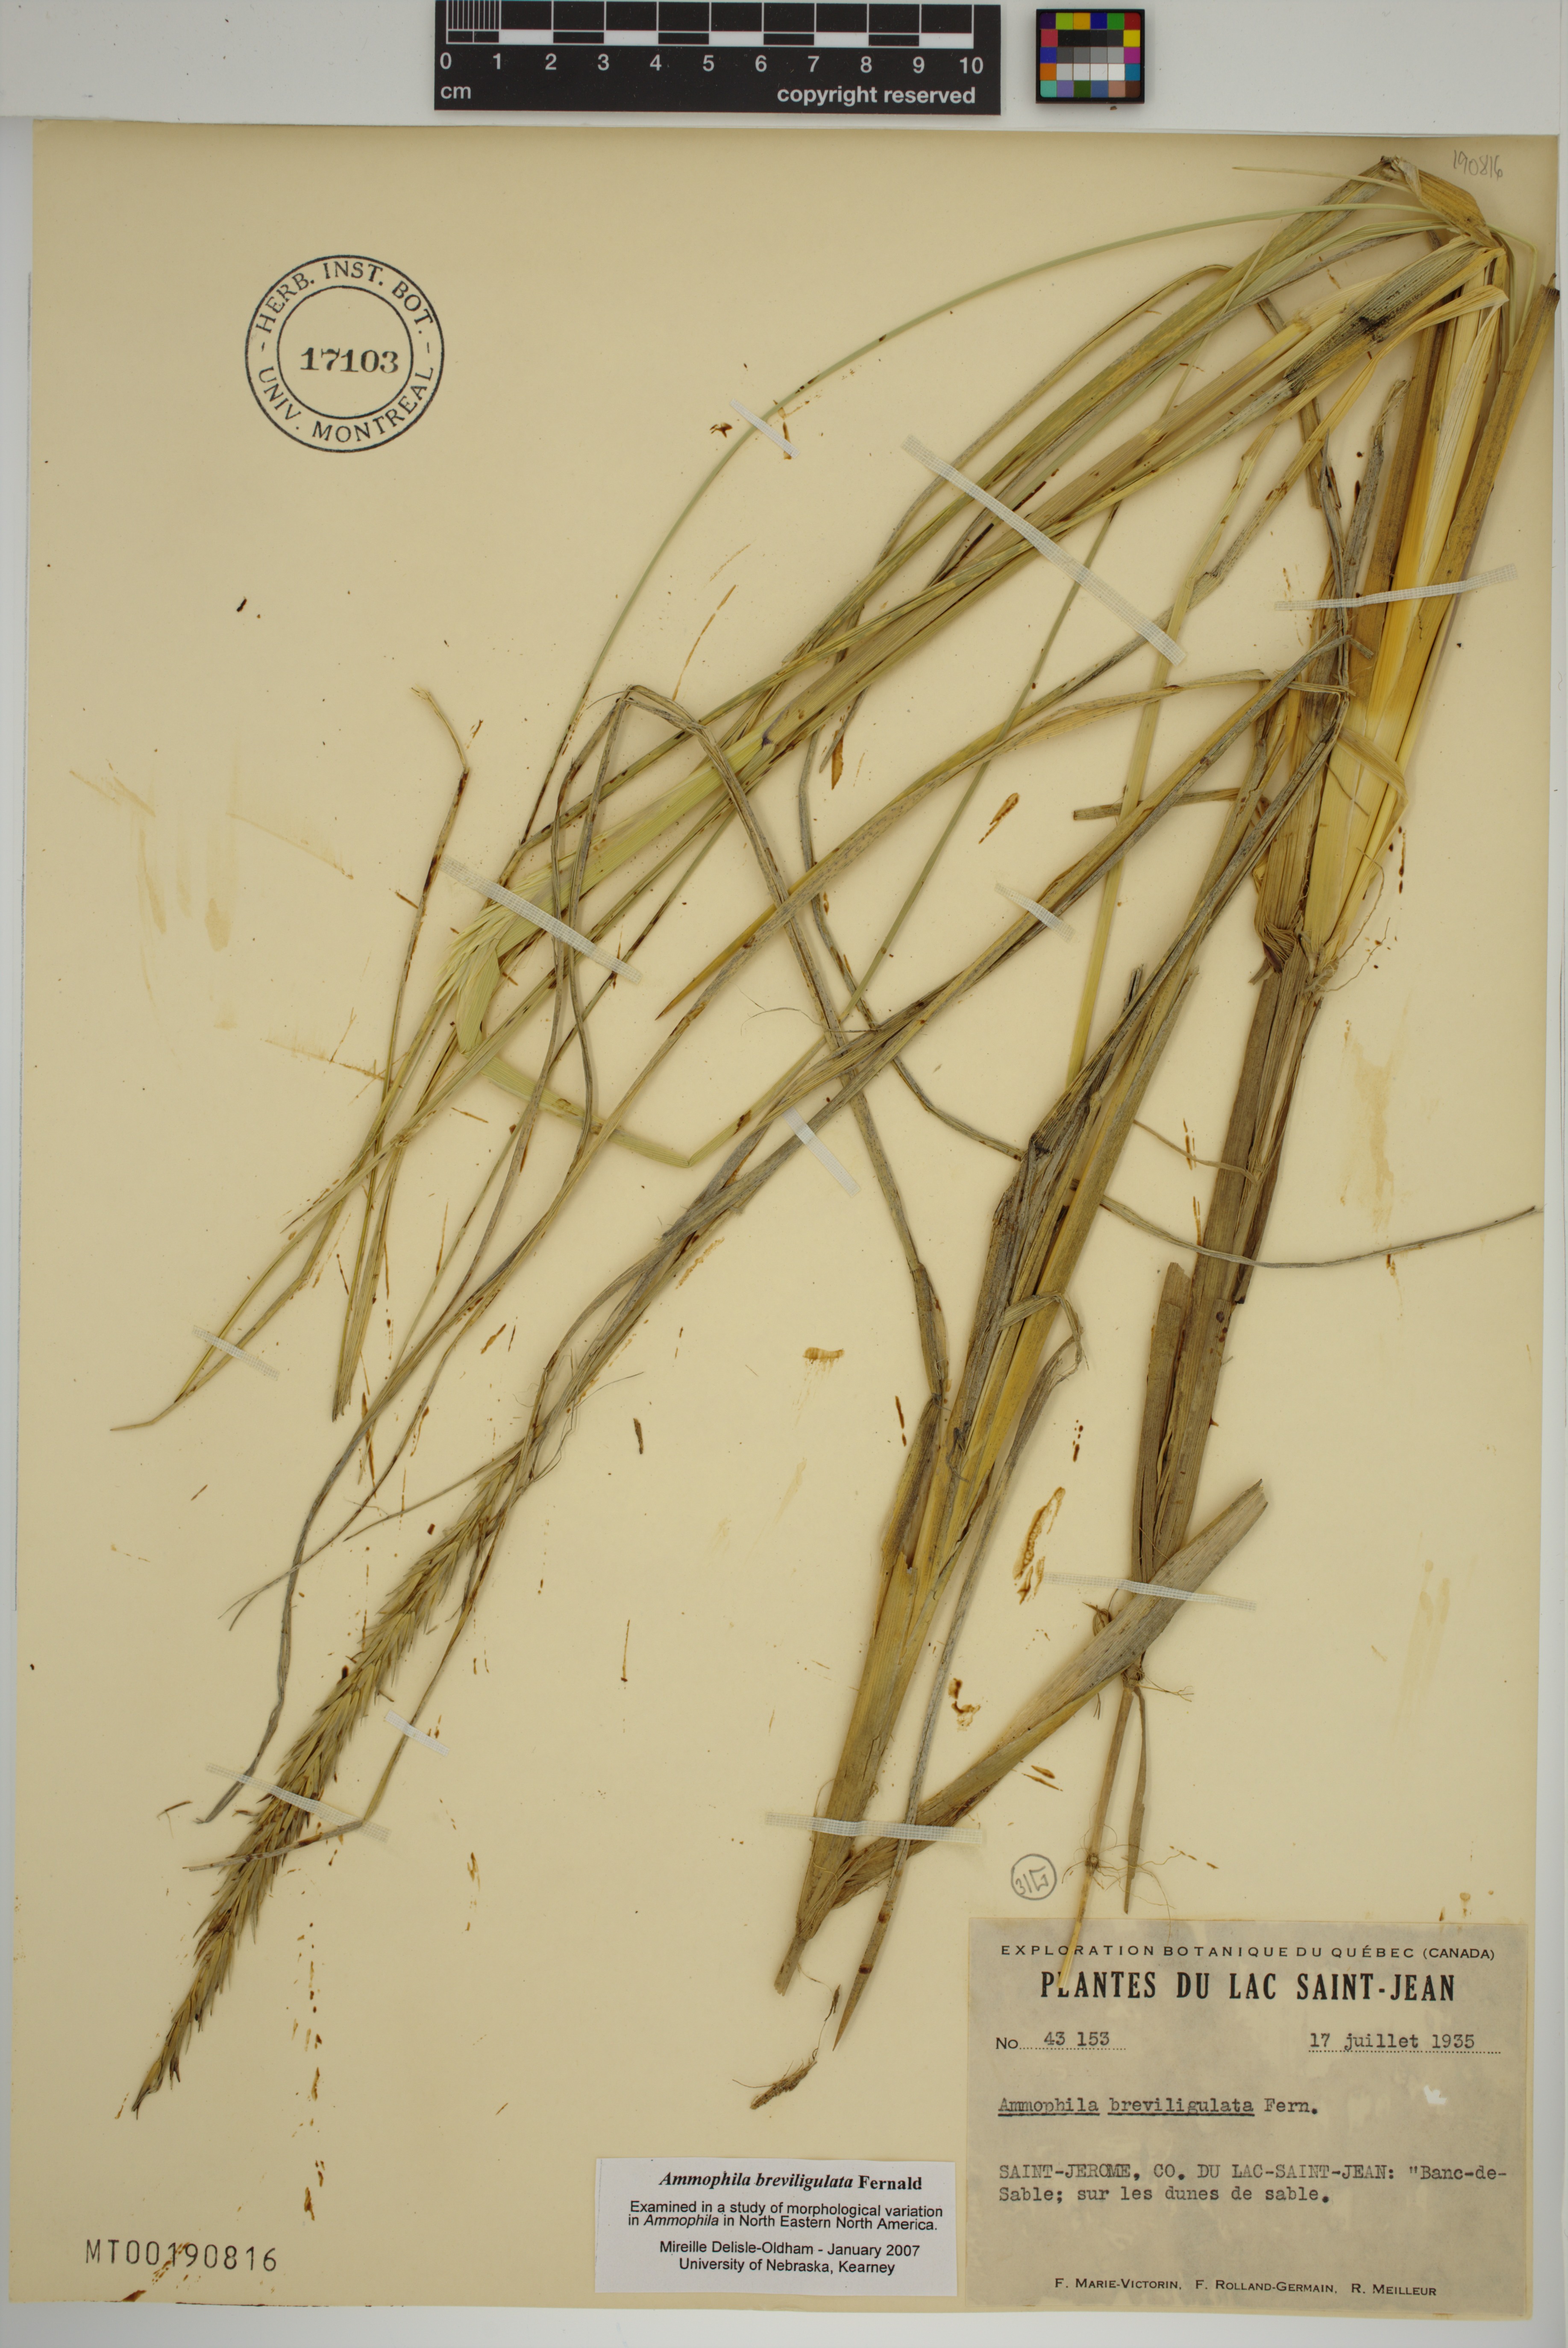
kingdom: Plantae
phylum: Tracheophyta
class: Liliopsida
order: Poales
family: Poaceae
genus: Calamagrostis
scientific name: Calamagrostis breviligulata
